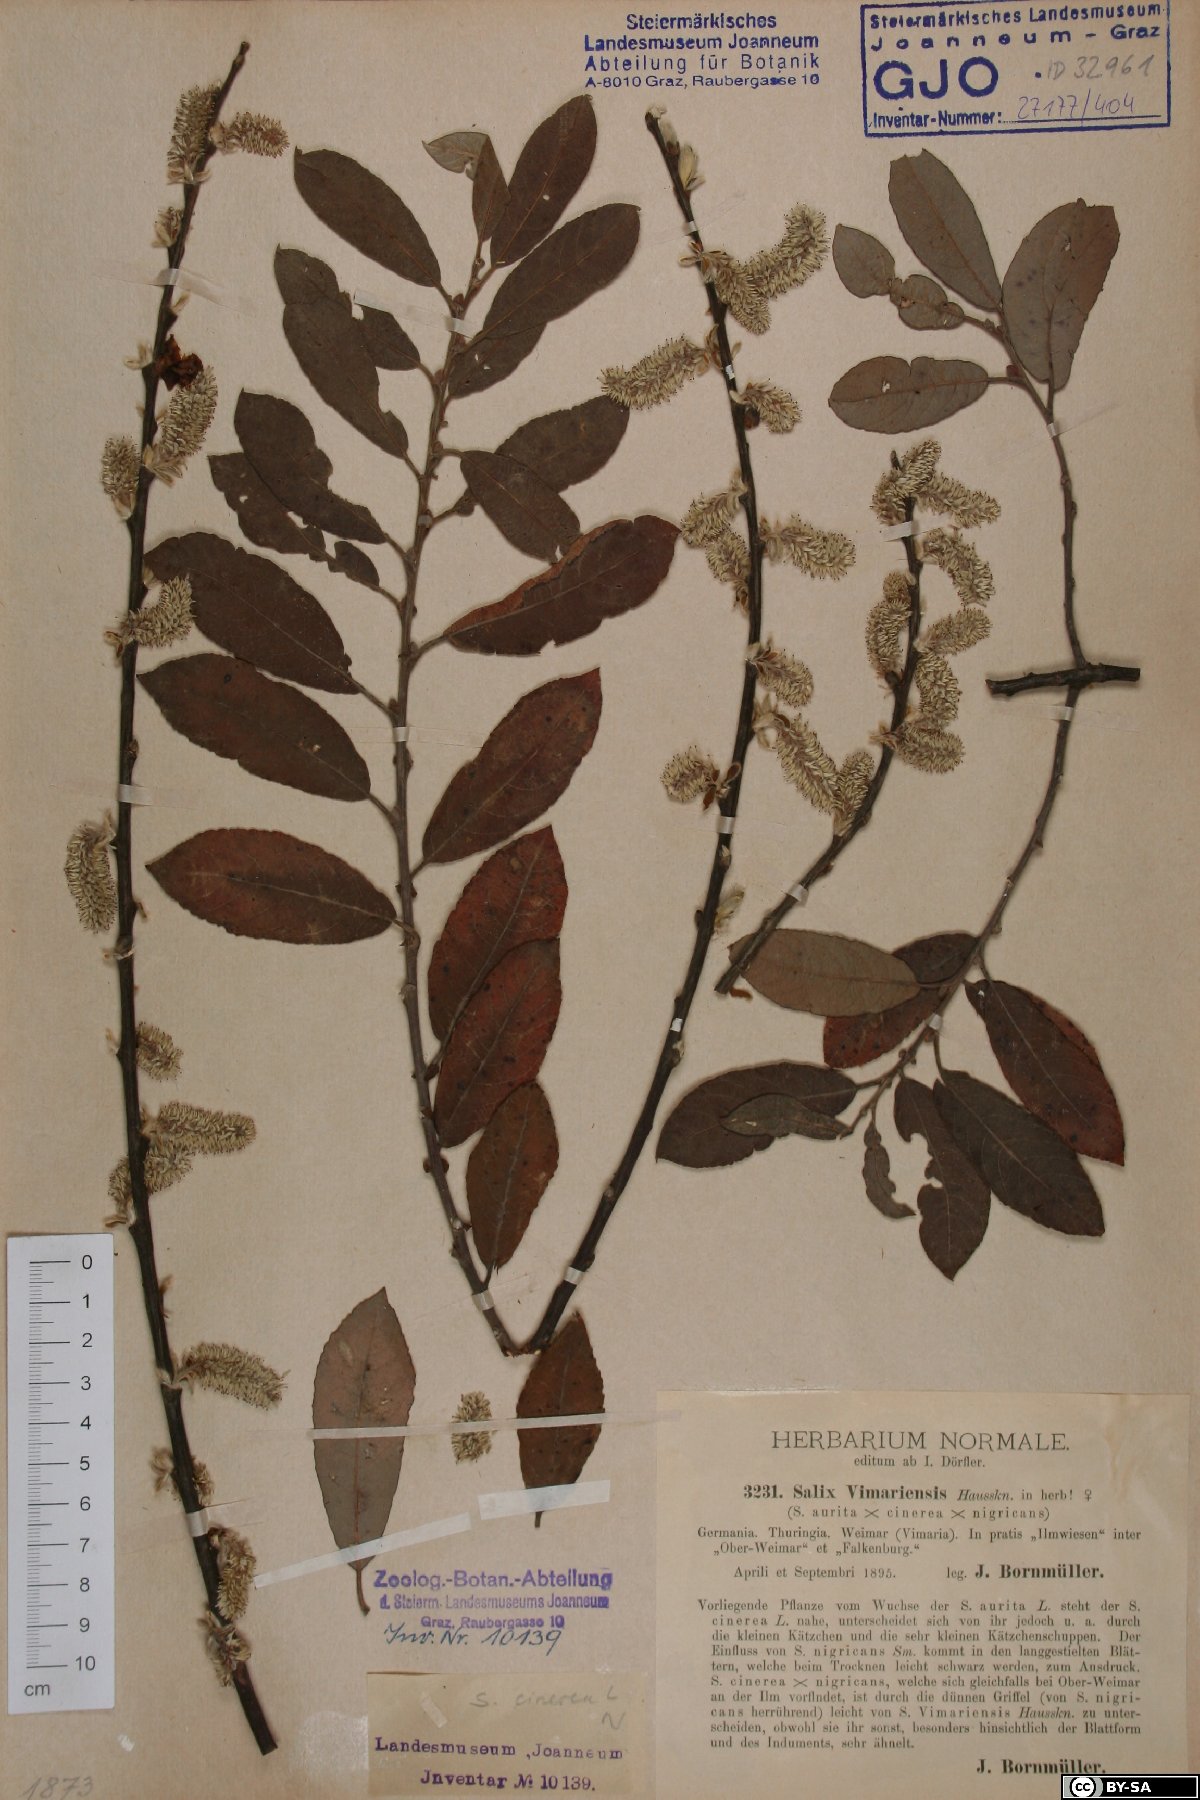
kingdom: Plantae
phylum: Tracheophyta
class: Magnoliopsida
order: Malpighiales
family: Salicaceae
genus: Salix
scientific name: Salix cinerea
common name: Common sallow
